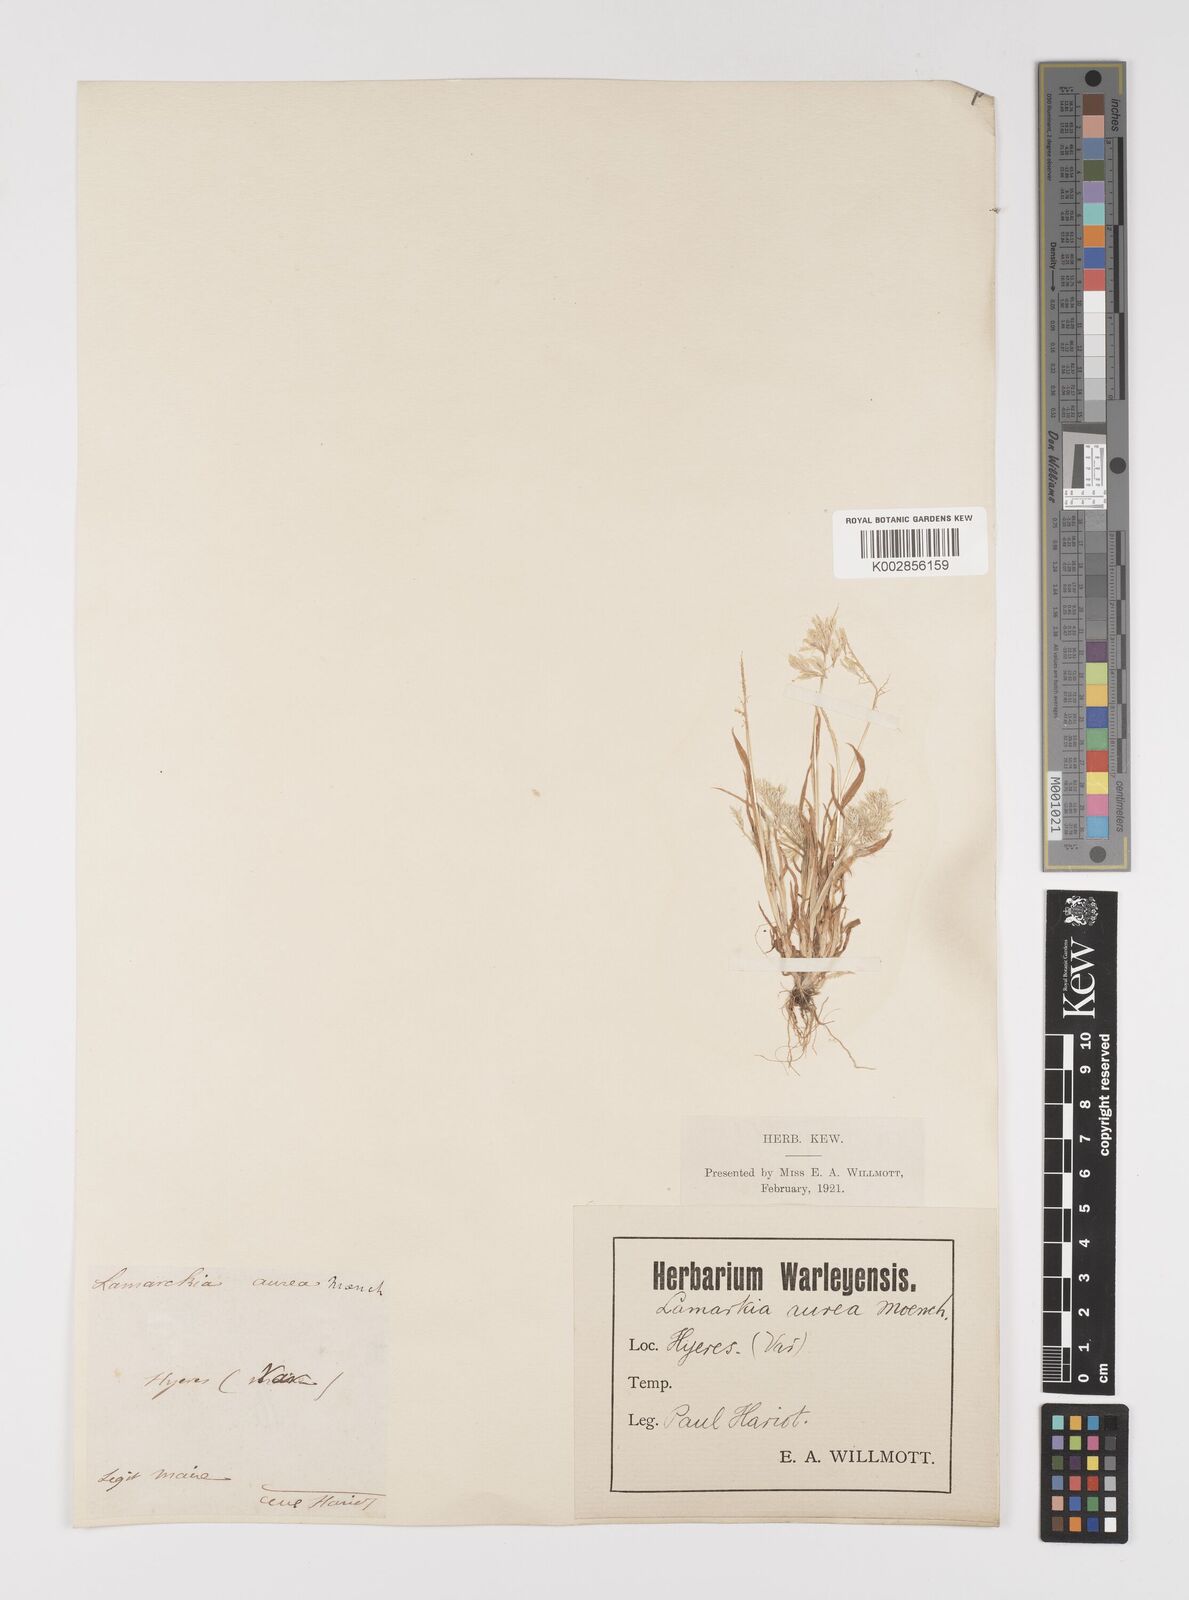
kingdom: Plantae
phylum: Tracheophyta
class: Liliopsida
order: Poales
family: Poaceae
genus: Lamarckia
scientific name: Lamarckia aurea
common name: Golden dog's-tail
